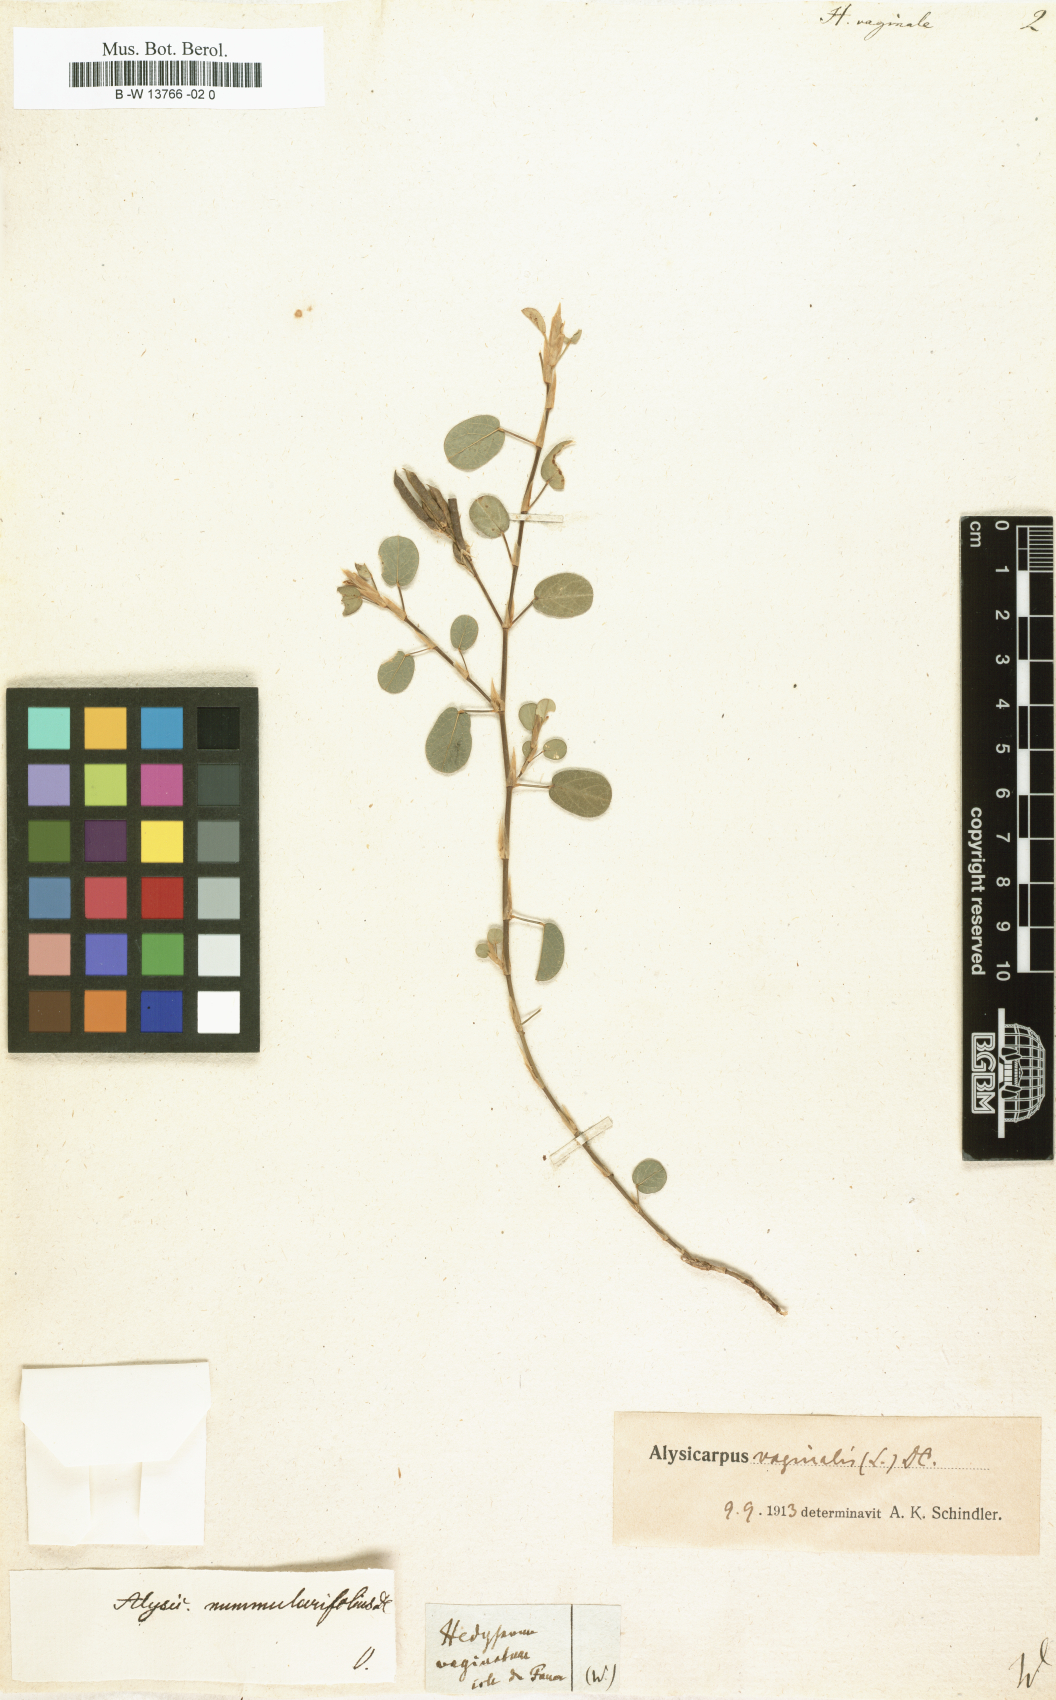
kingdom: Plantae
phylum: Tracheophyta
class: Magnoliopsida
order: Fabales
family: Fabaceae
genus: Alysicarpus
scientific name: Alysicarpus vaginalis
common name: White moneywort
